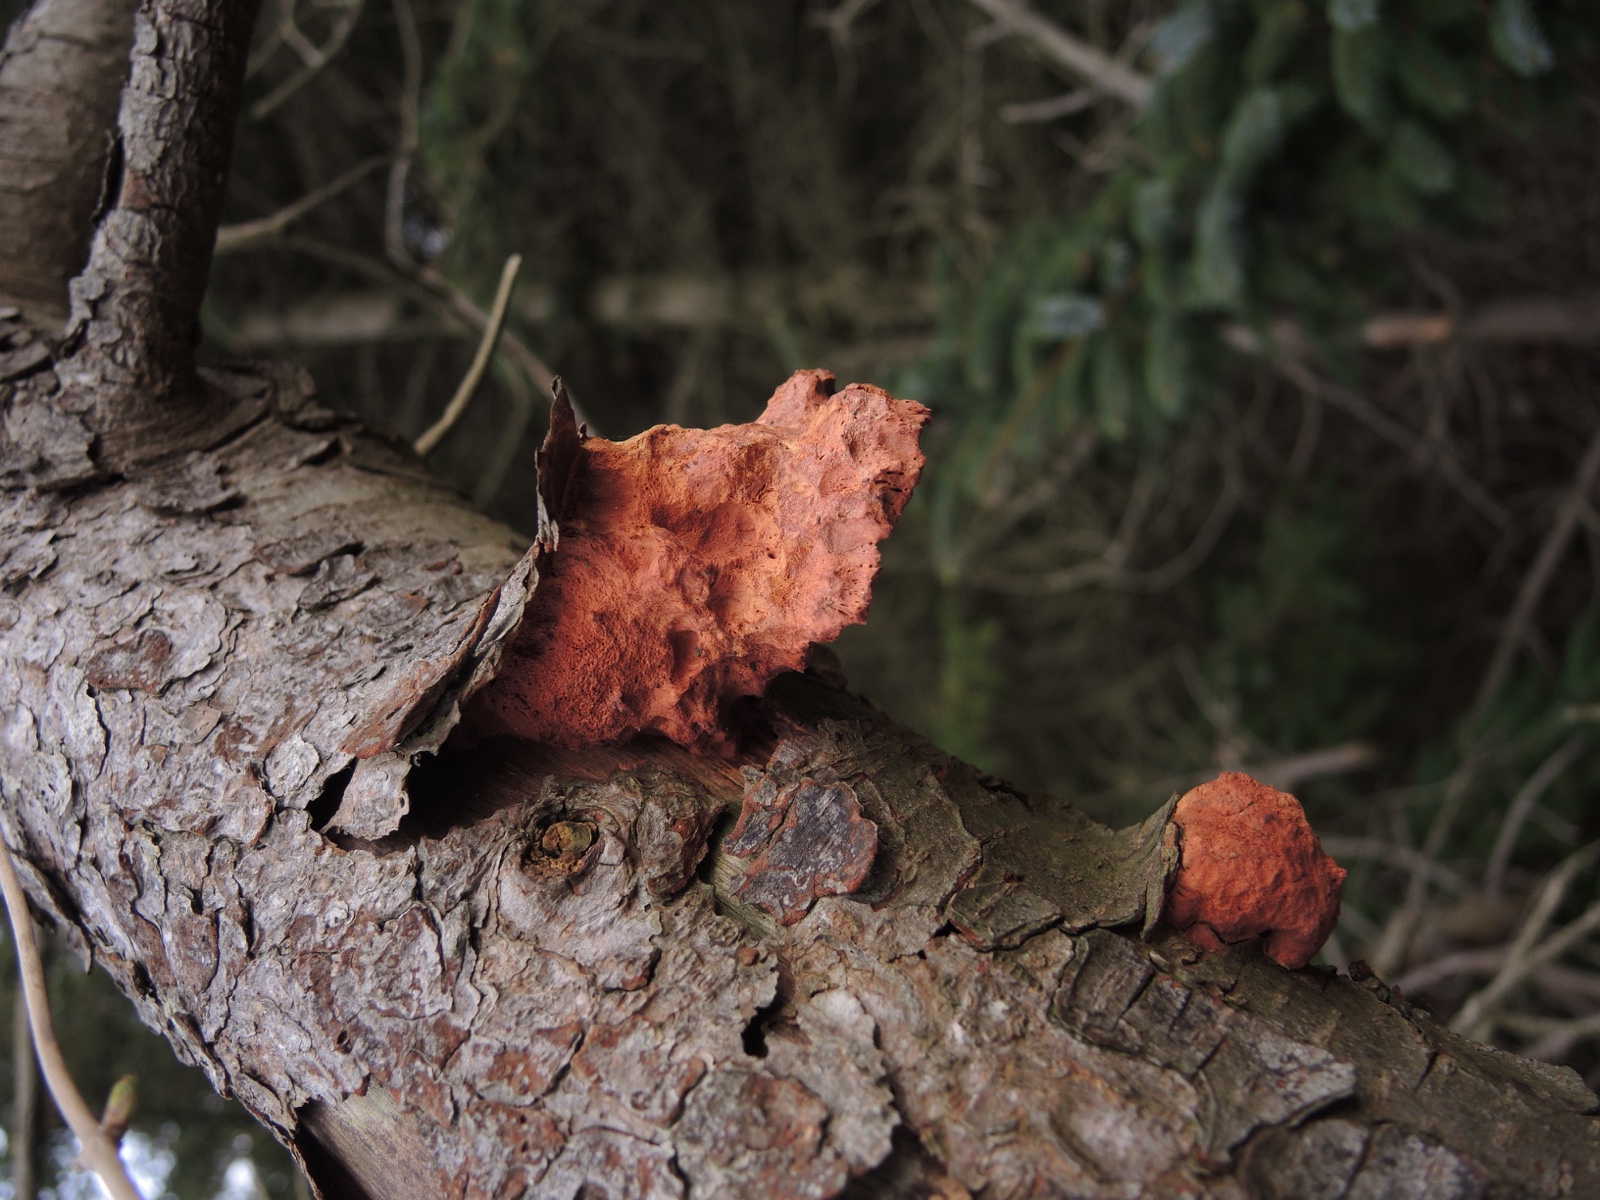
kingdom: Fungi
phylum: Basidiomycota
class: Agaricomycetes
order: Polyporales
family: Phanerochaetaceae
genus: Hapalopilus
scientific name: Hapalopilus rutilans
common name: rødlig okkerporesvamp
